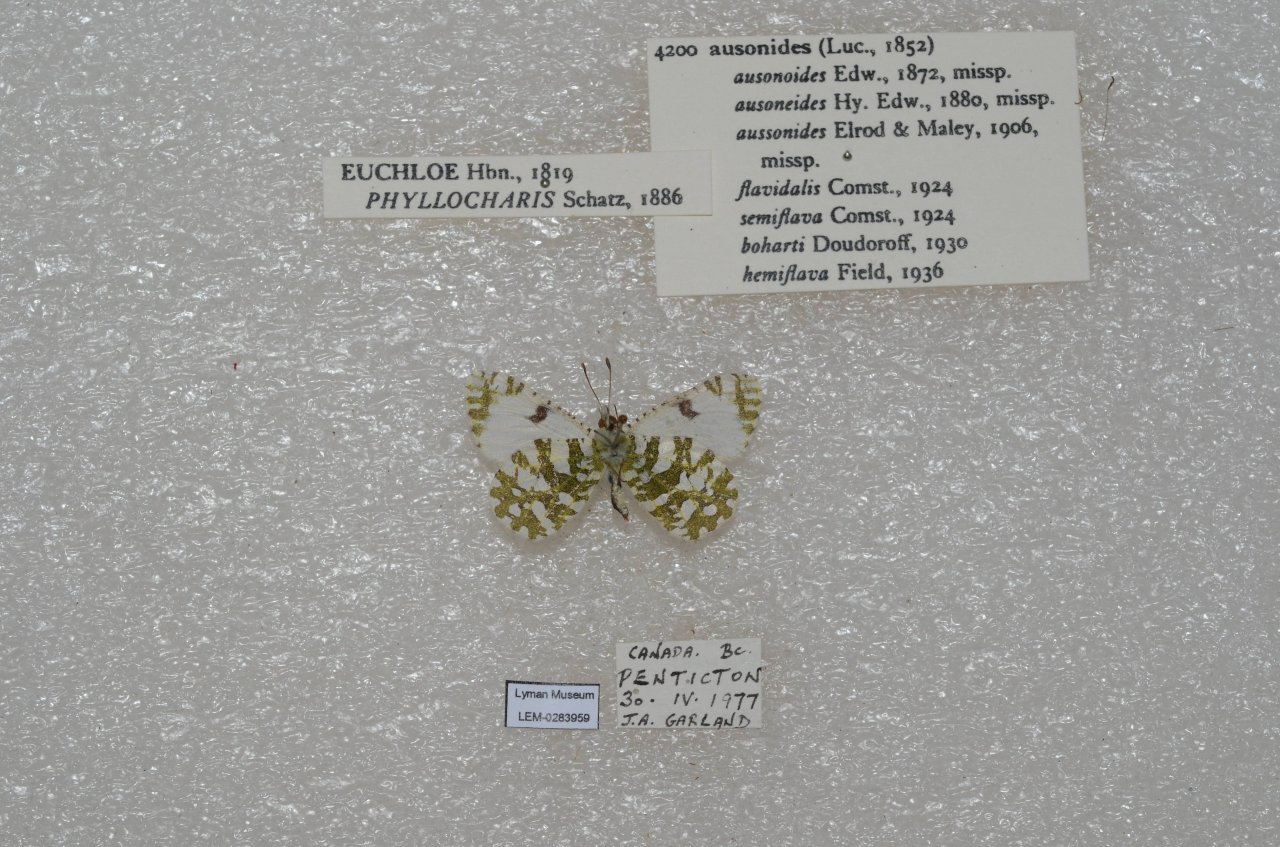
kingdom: Animalia
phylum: Arthropoda
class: Insecta
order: Lepidoptera
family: Pieridae
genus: Euchloe
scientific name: Euchloe ausonides
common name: Large Marble
